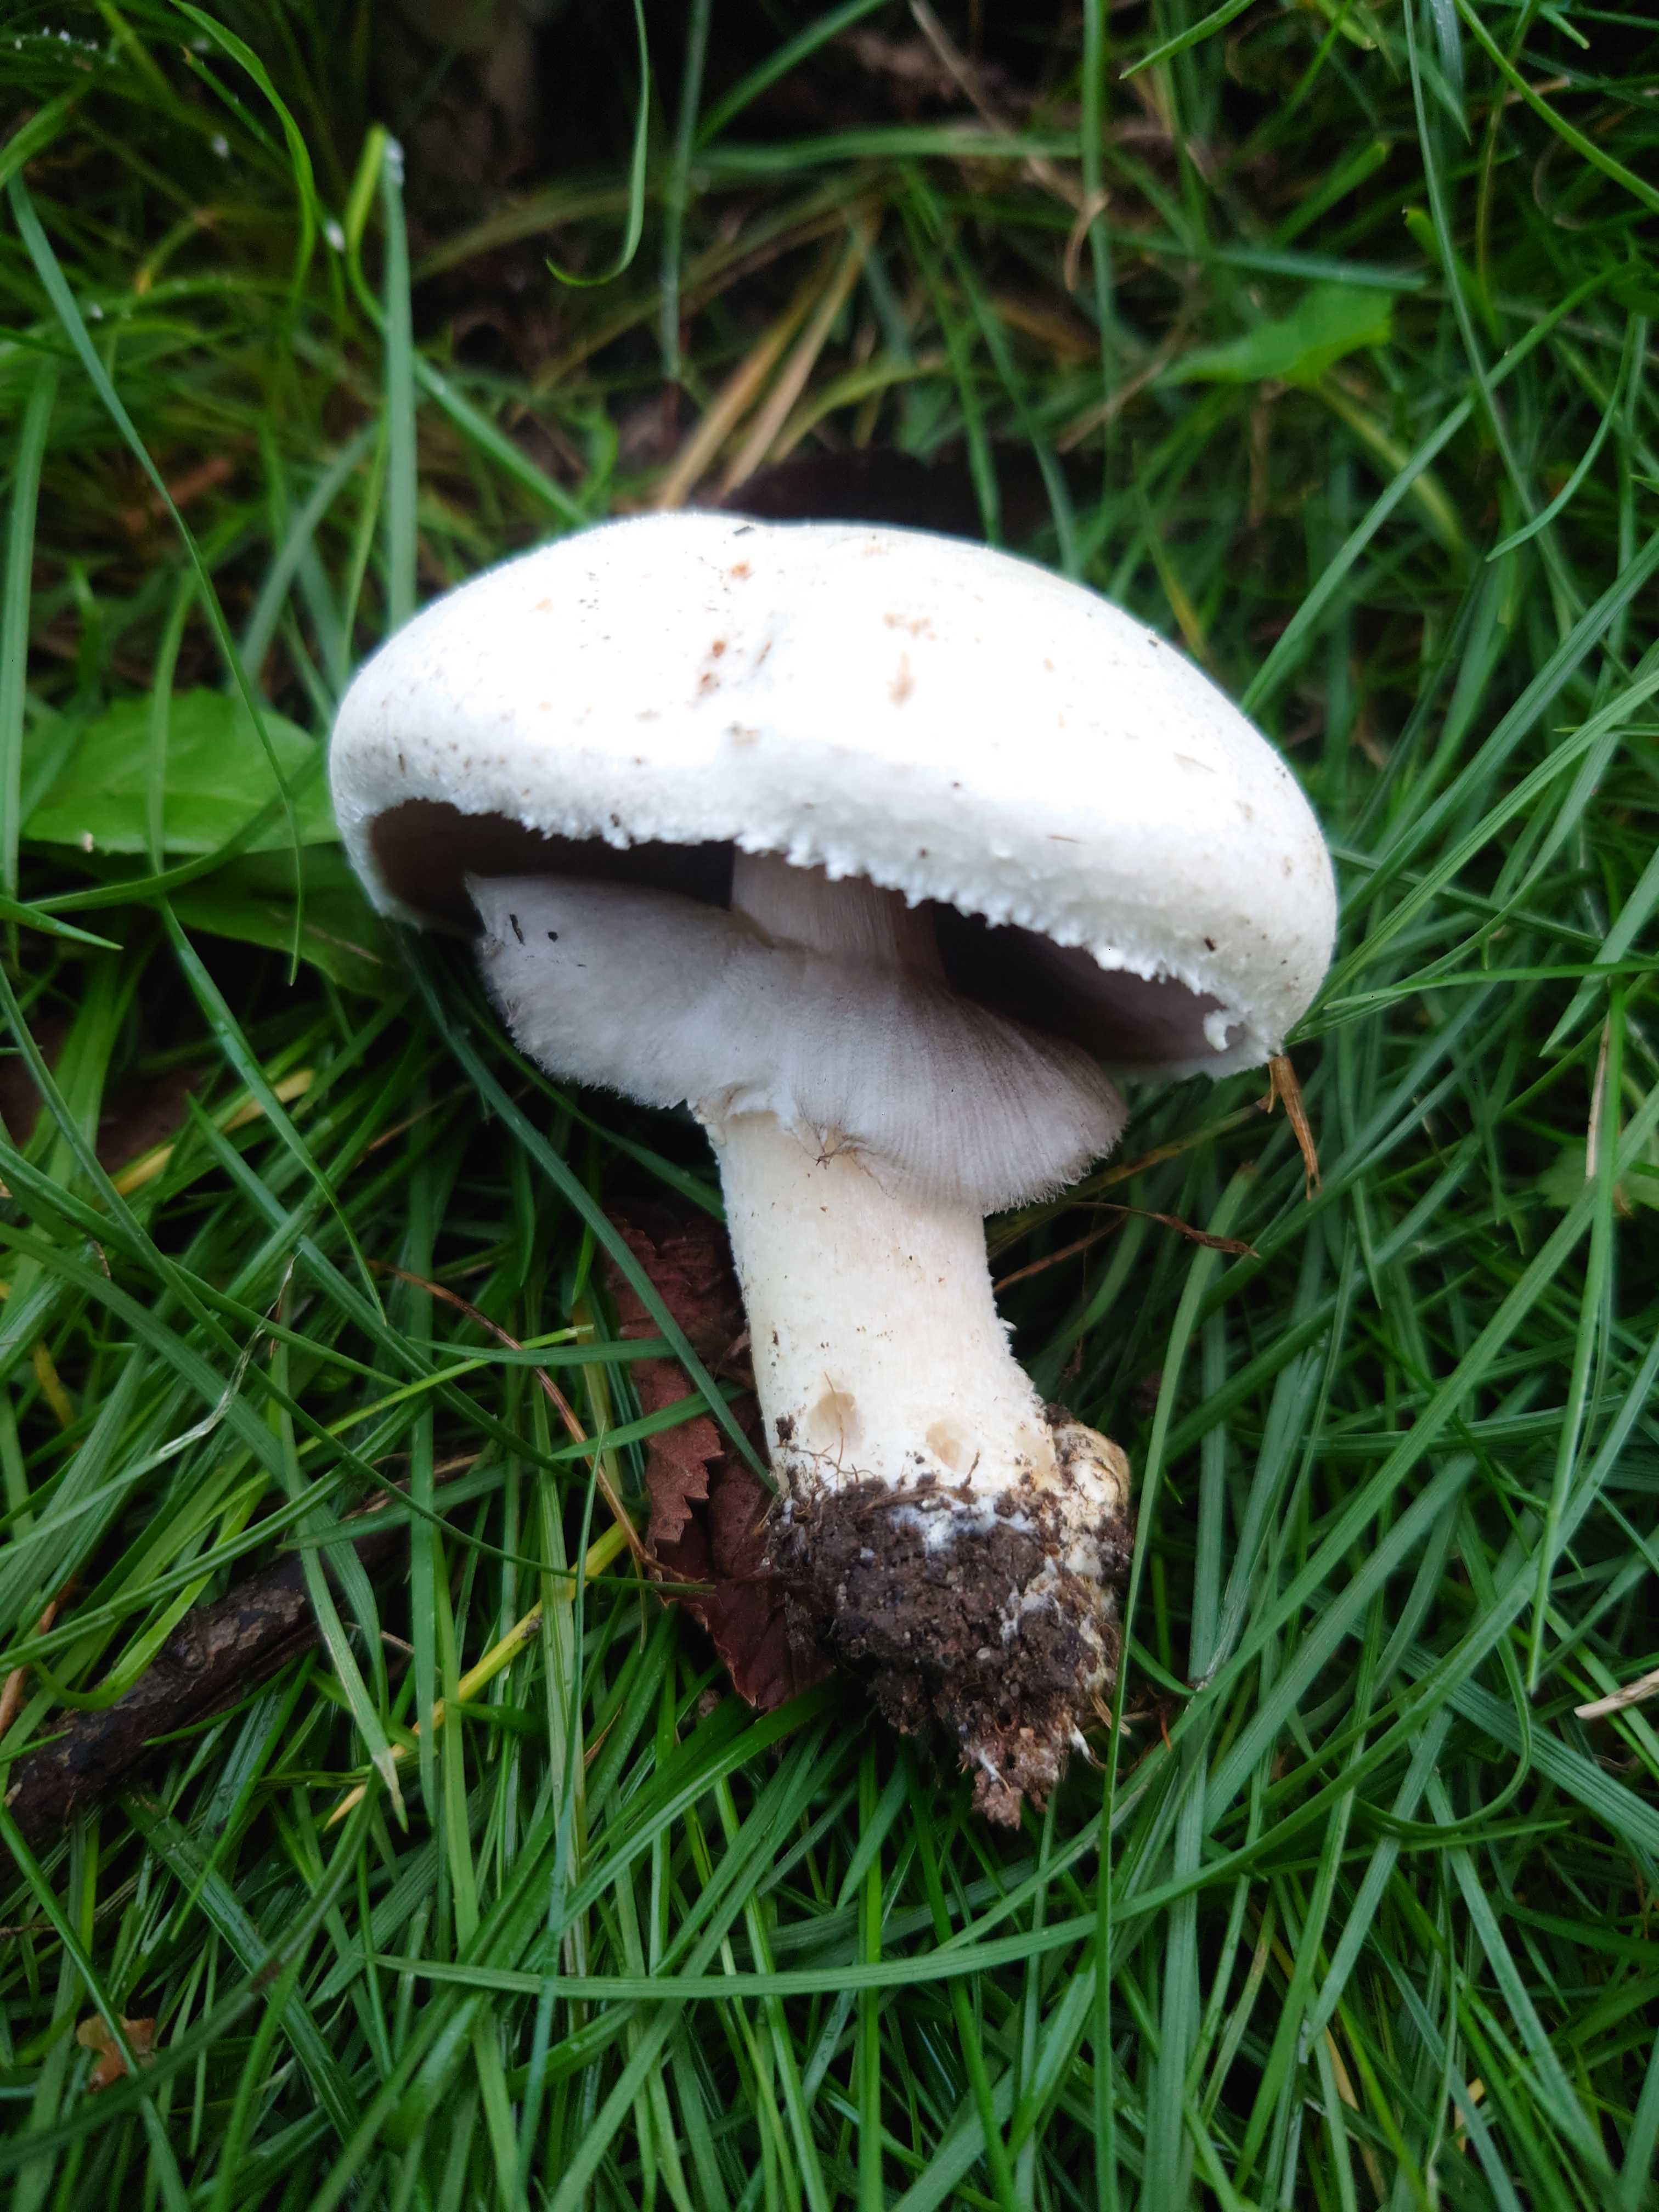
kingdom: Fungi
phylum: Basidiomycota
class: Agaricomycetes
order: Agaricales
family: Agaricaceae
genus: Agaricus
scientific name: Agaricus
